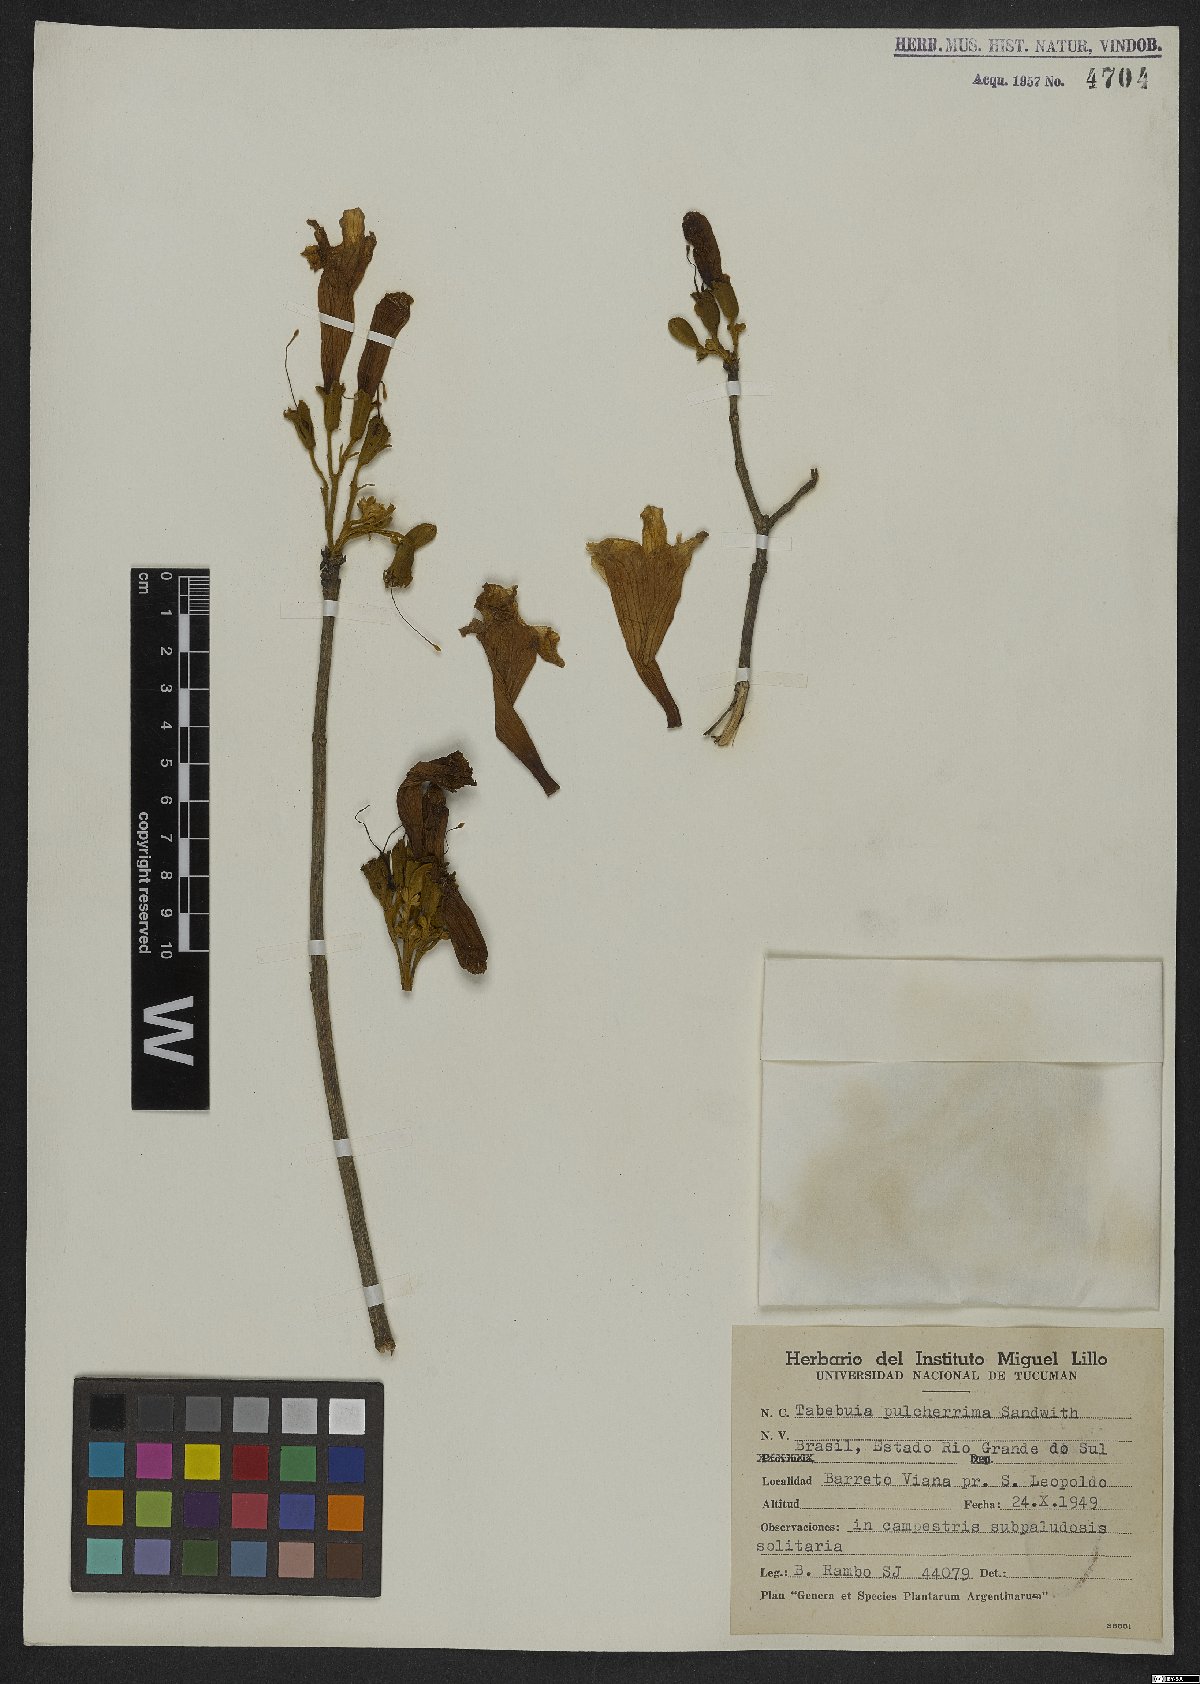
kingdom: Plantae
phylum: Tracheophyta
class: Magnoliopsida
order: Lamiales
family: Bignoniaceae
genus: Handroanthus
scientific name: Handroanthus pulcherrimus
